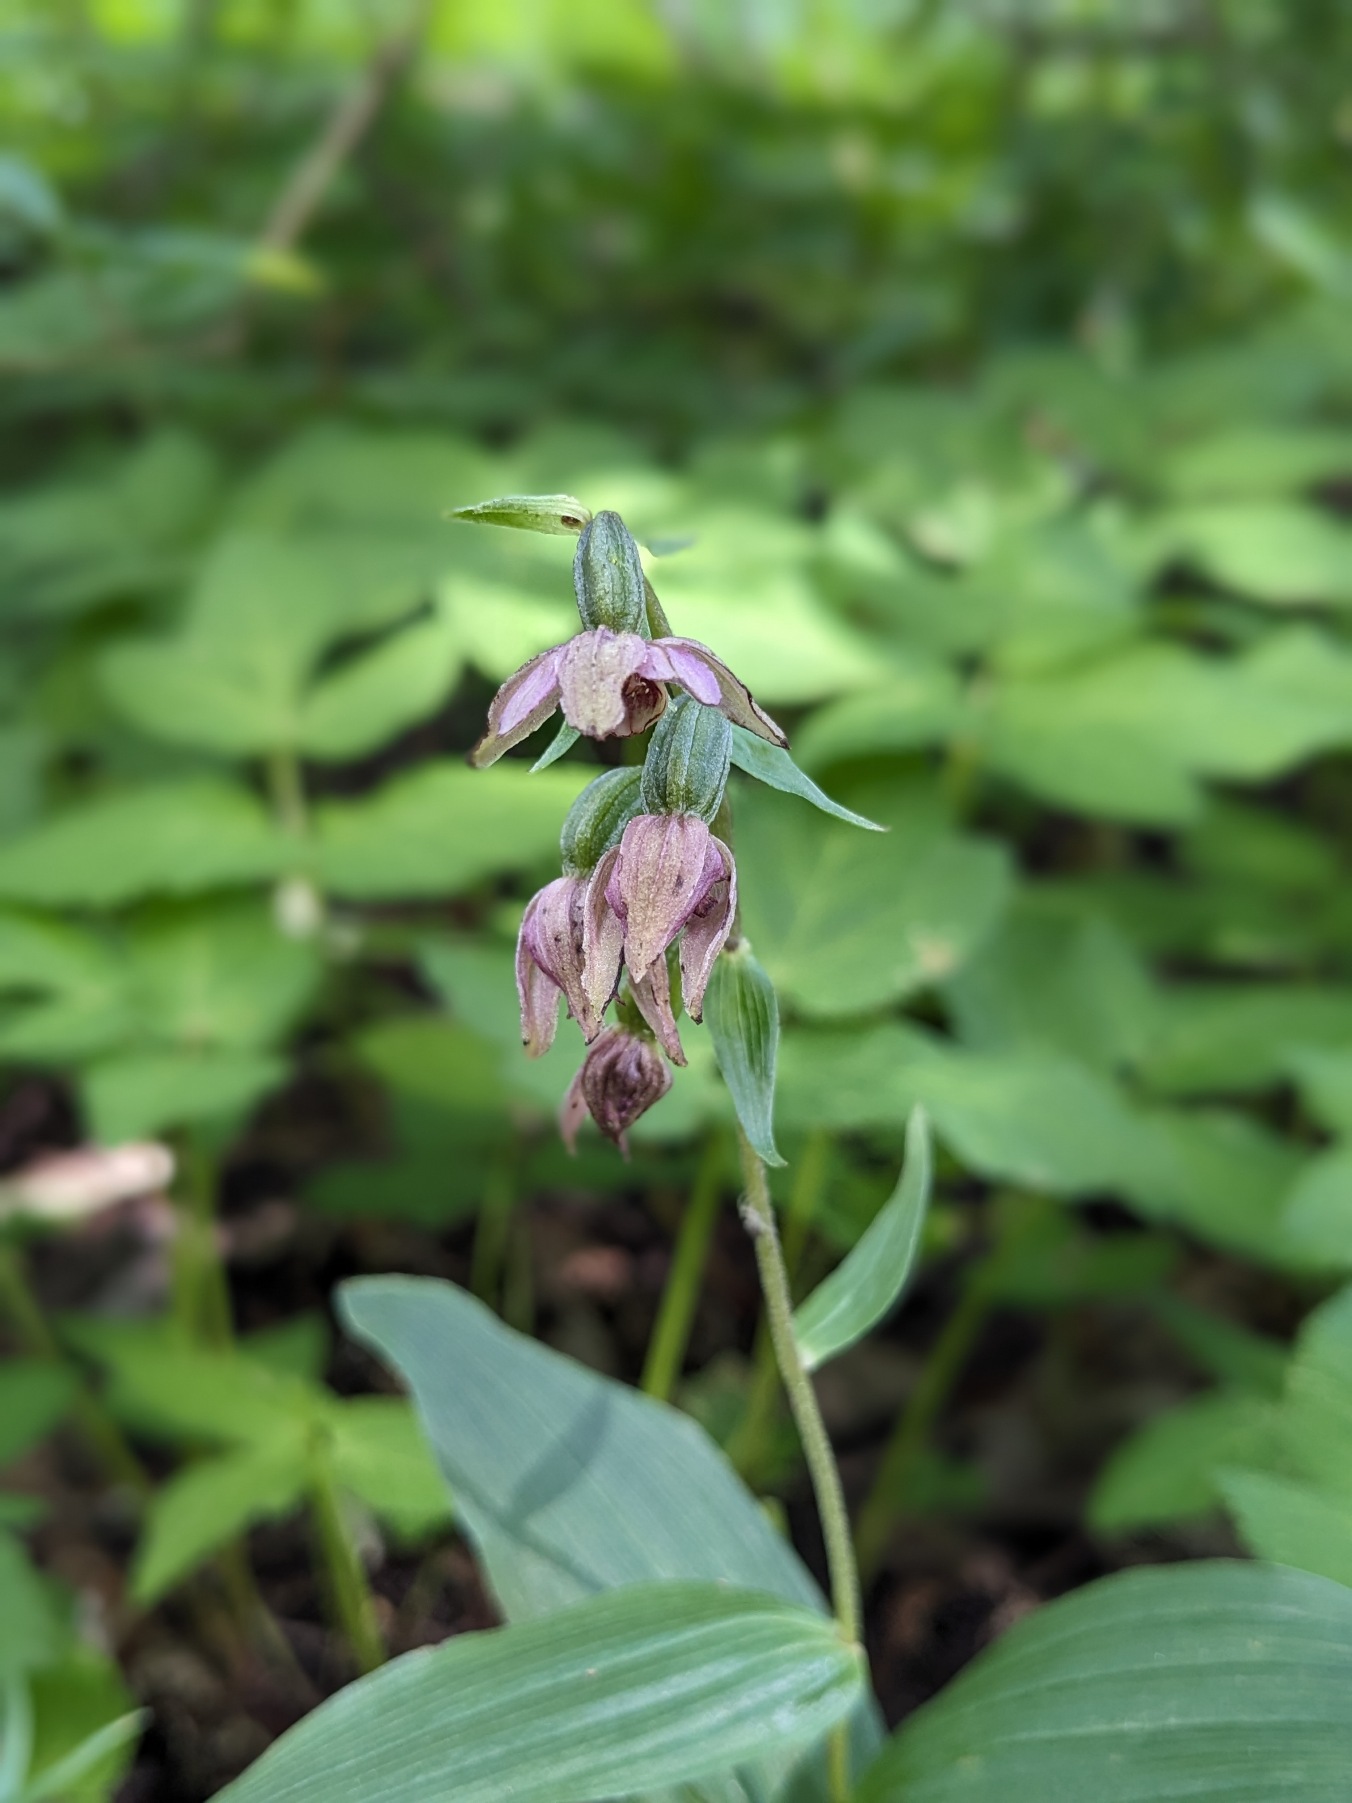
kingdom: Plantae
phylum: Tracheophyta
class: Liliopsida
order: Asparagales
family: Orchidaceae
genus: Epipactis
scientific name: Epipactis helleborine
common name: Skov-hullæbe
